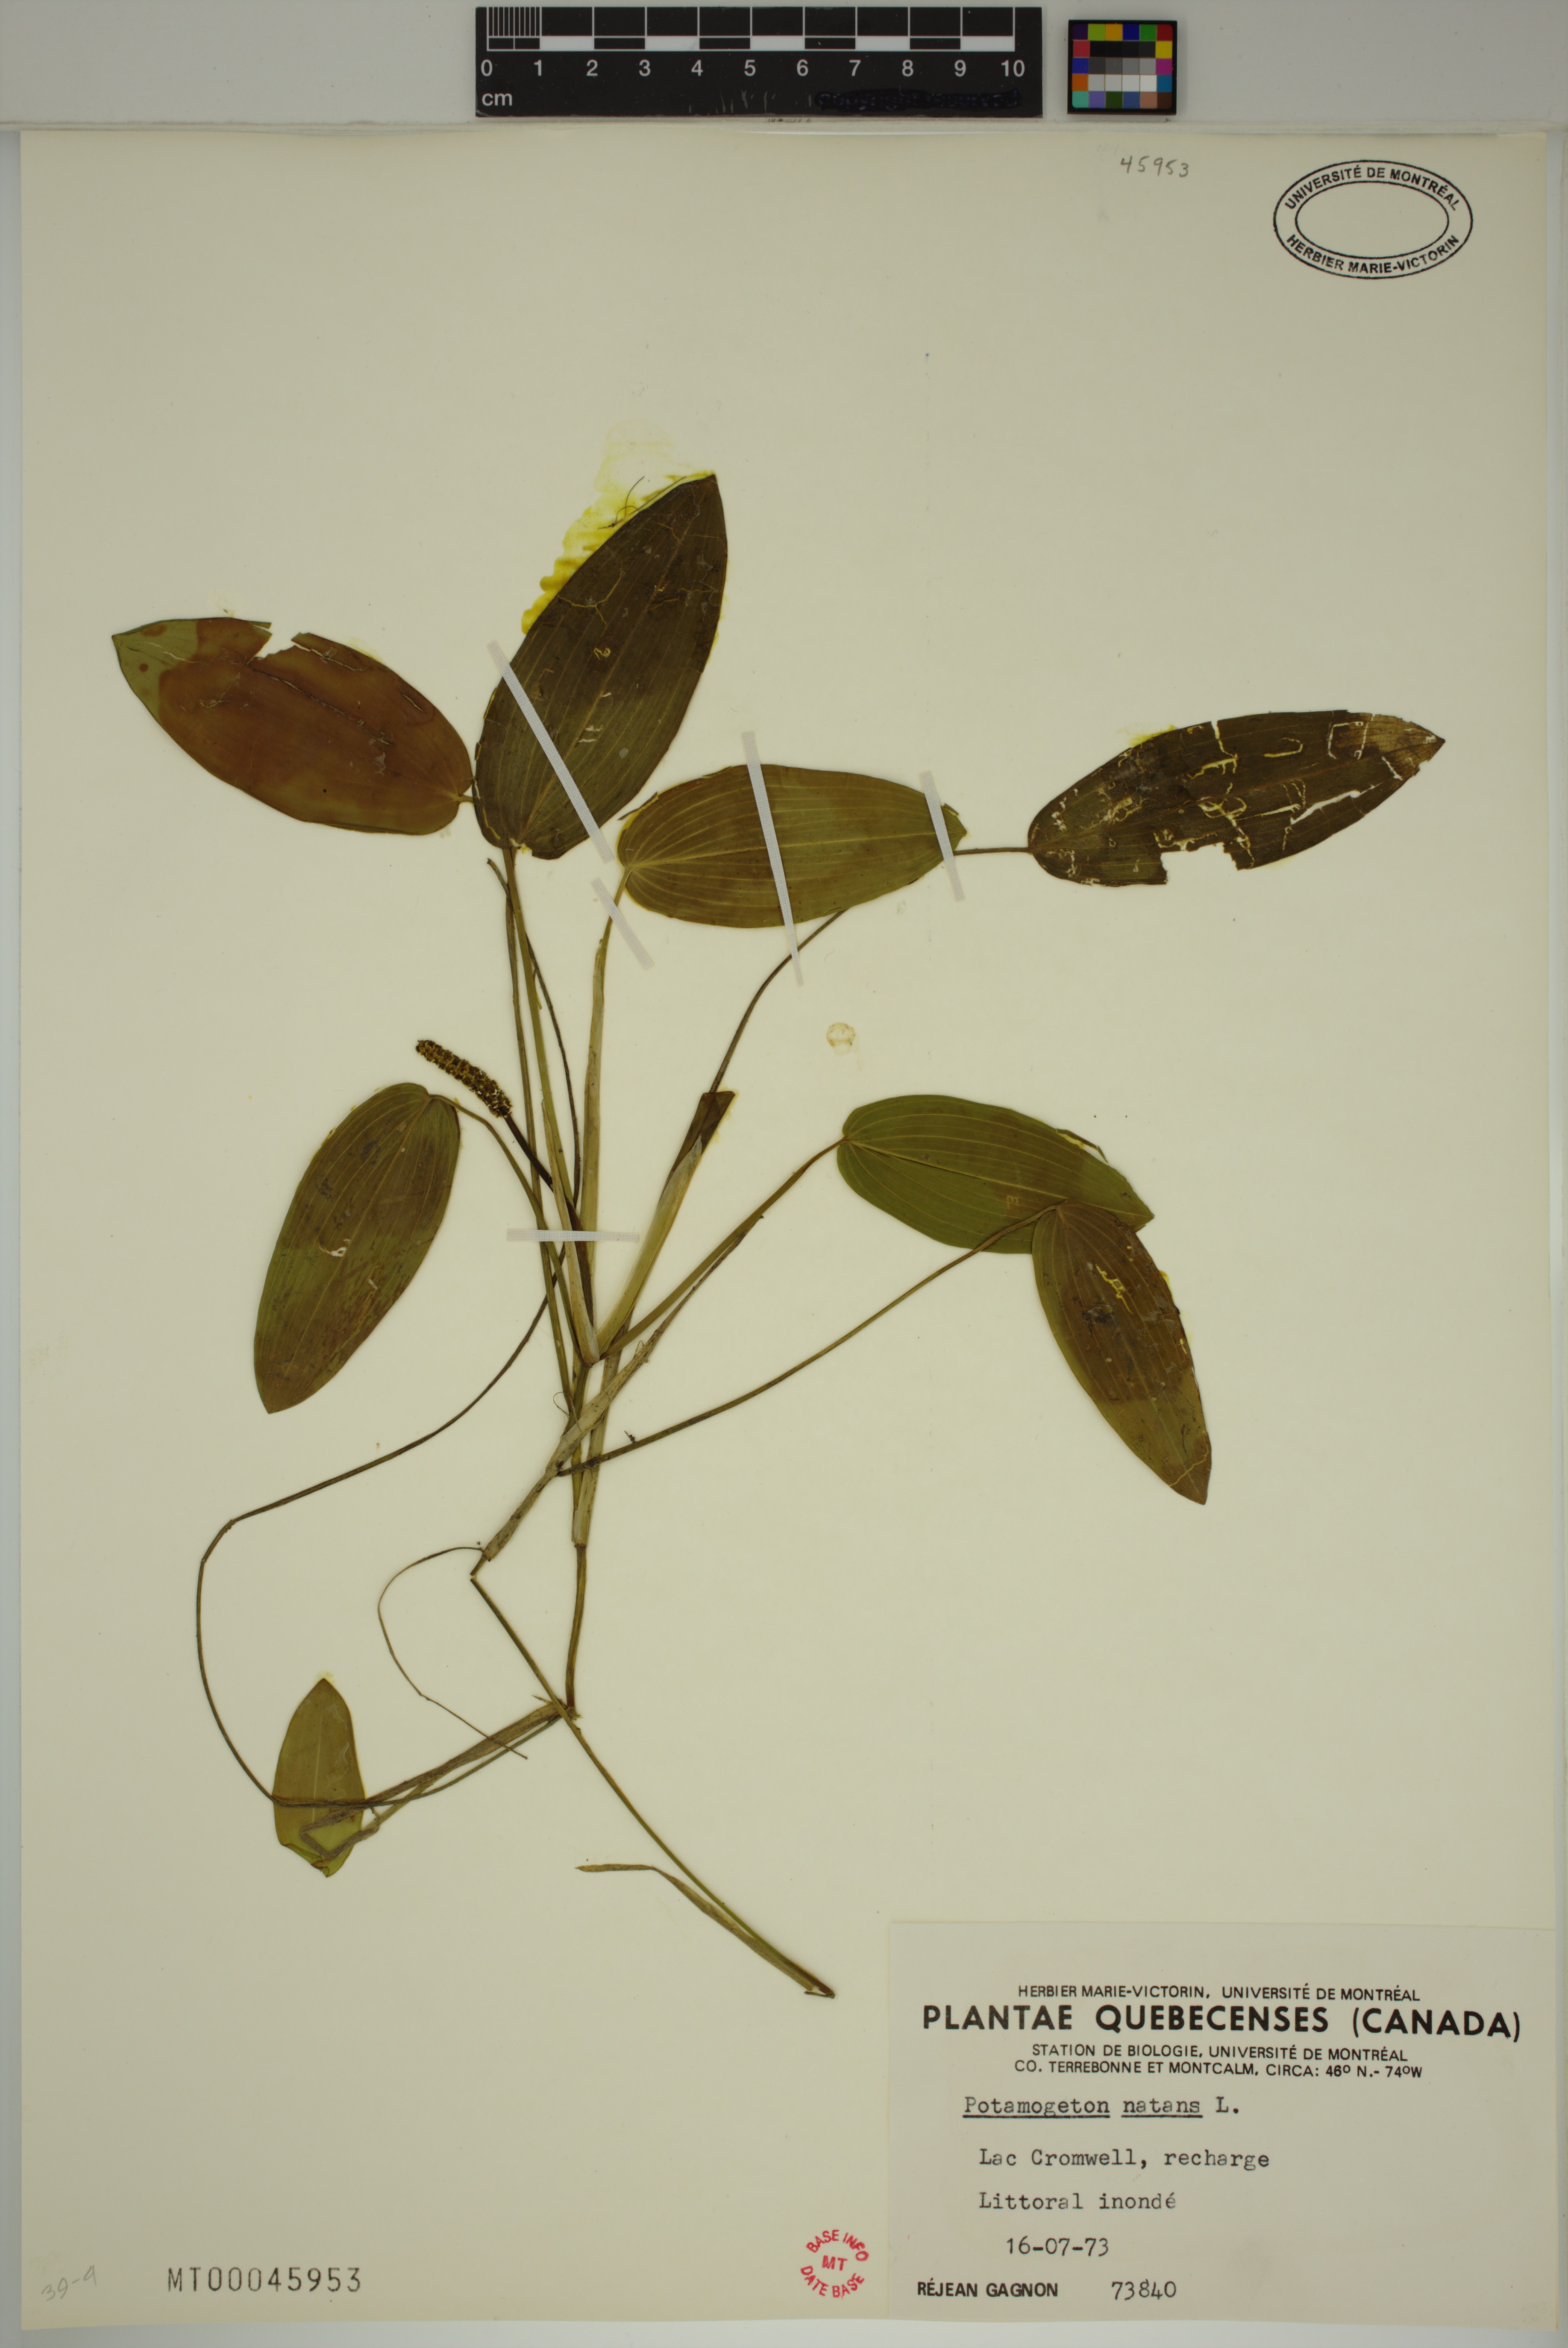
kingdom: Plantae
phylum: Tracheophyta
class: Liliopsida
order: Alismatales
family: Potamogetonaceae
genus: Potamogeton
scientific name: Potamogeton natans
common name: Broad-leaved pondweed
